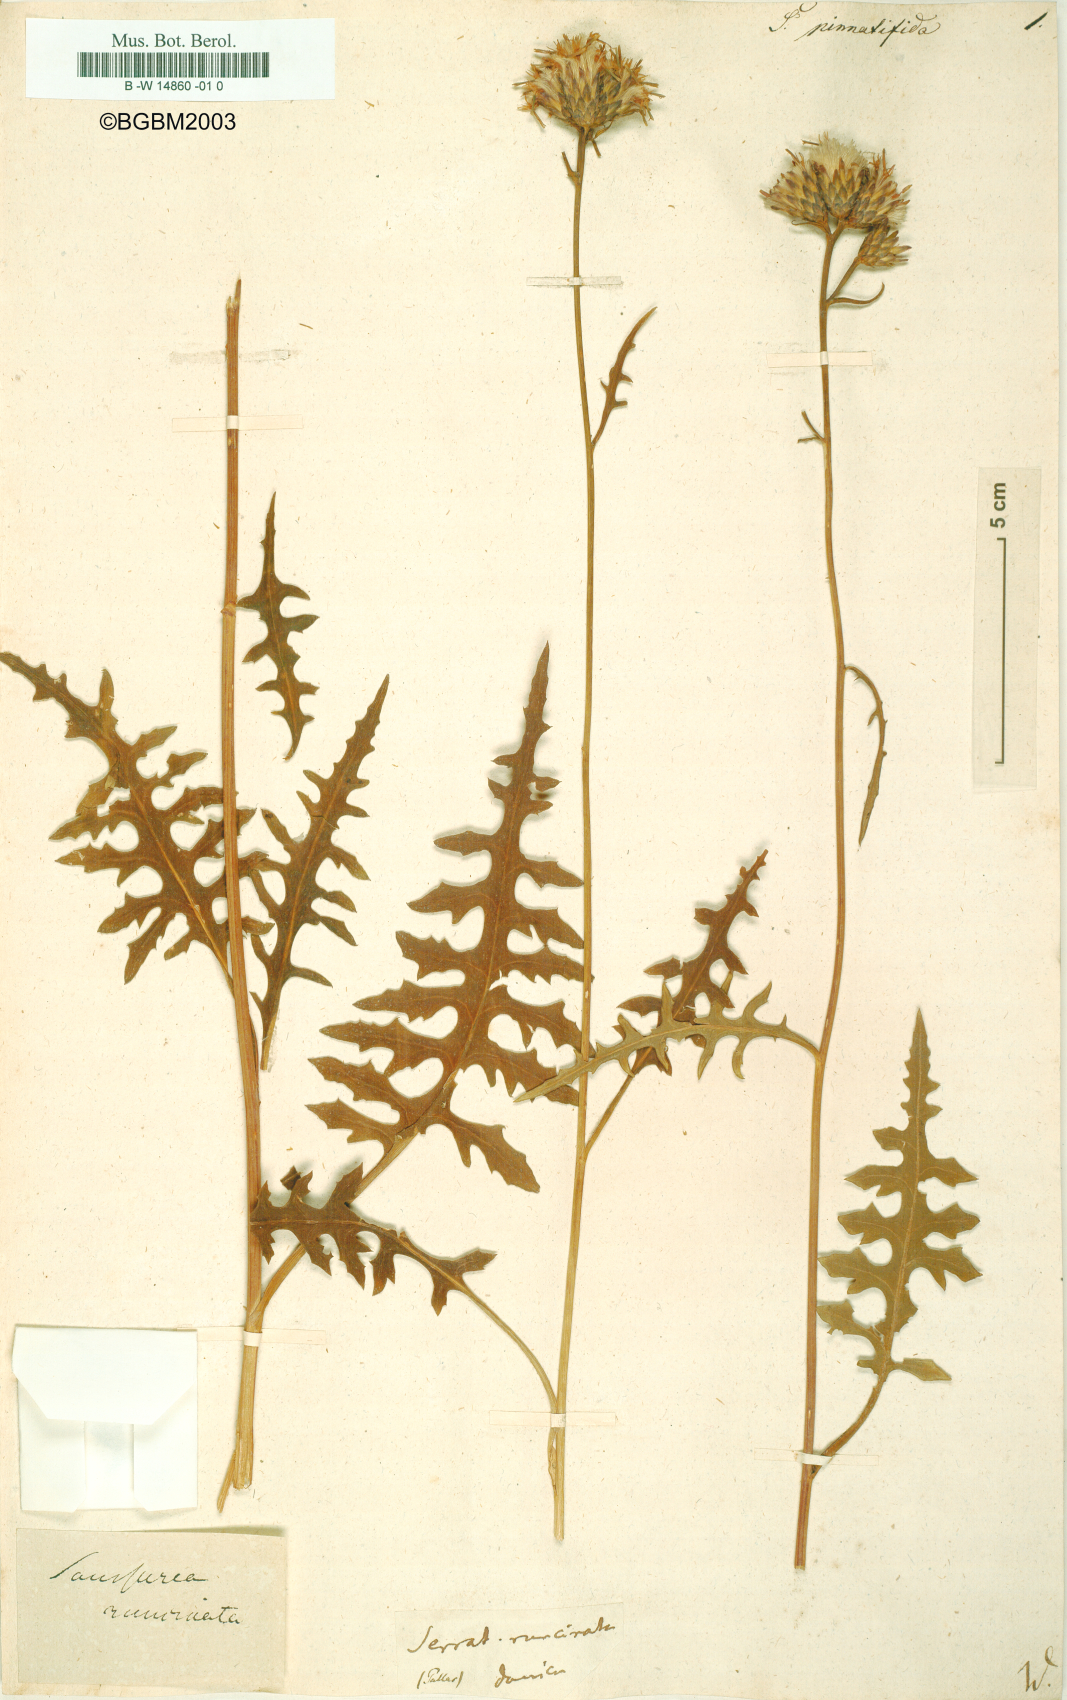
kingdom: Plantae
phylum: Tracheophyta
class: Magnoliopsida
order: Asterales
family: Asteraceae
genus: Klasea
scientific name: Klasea
